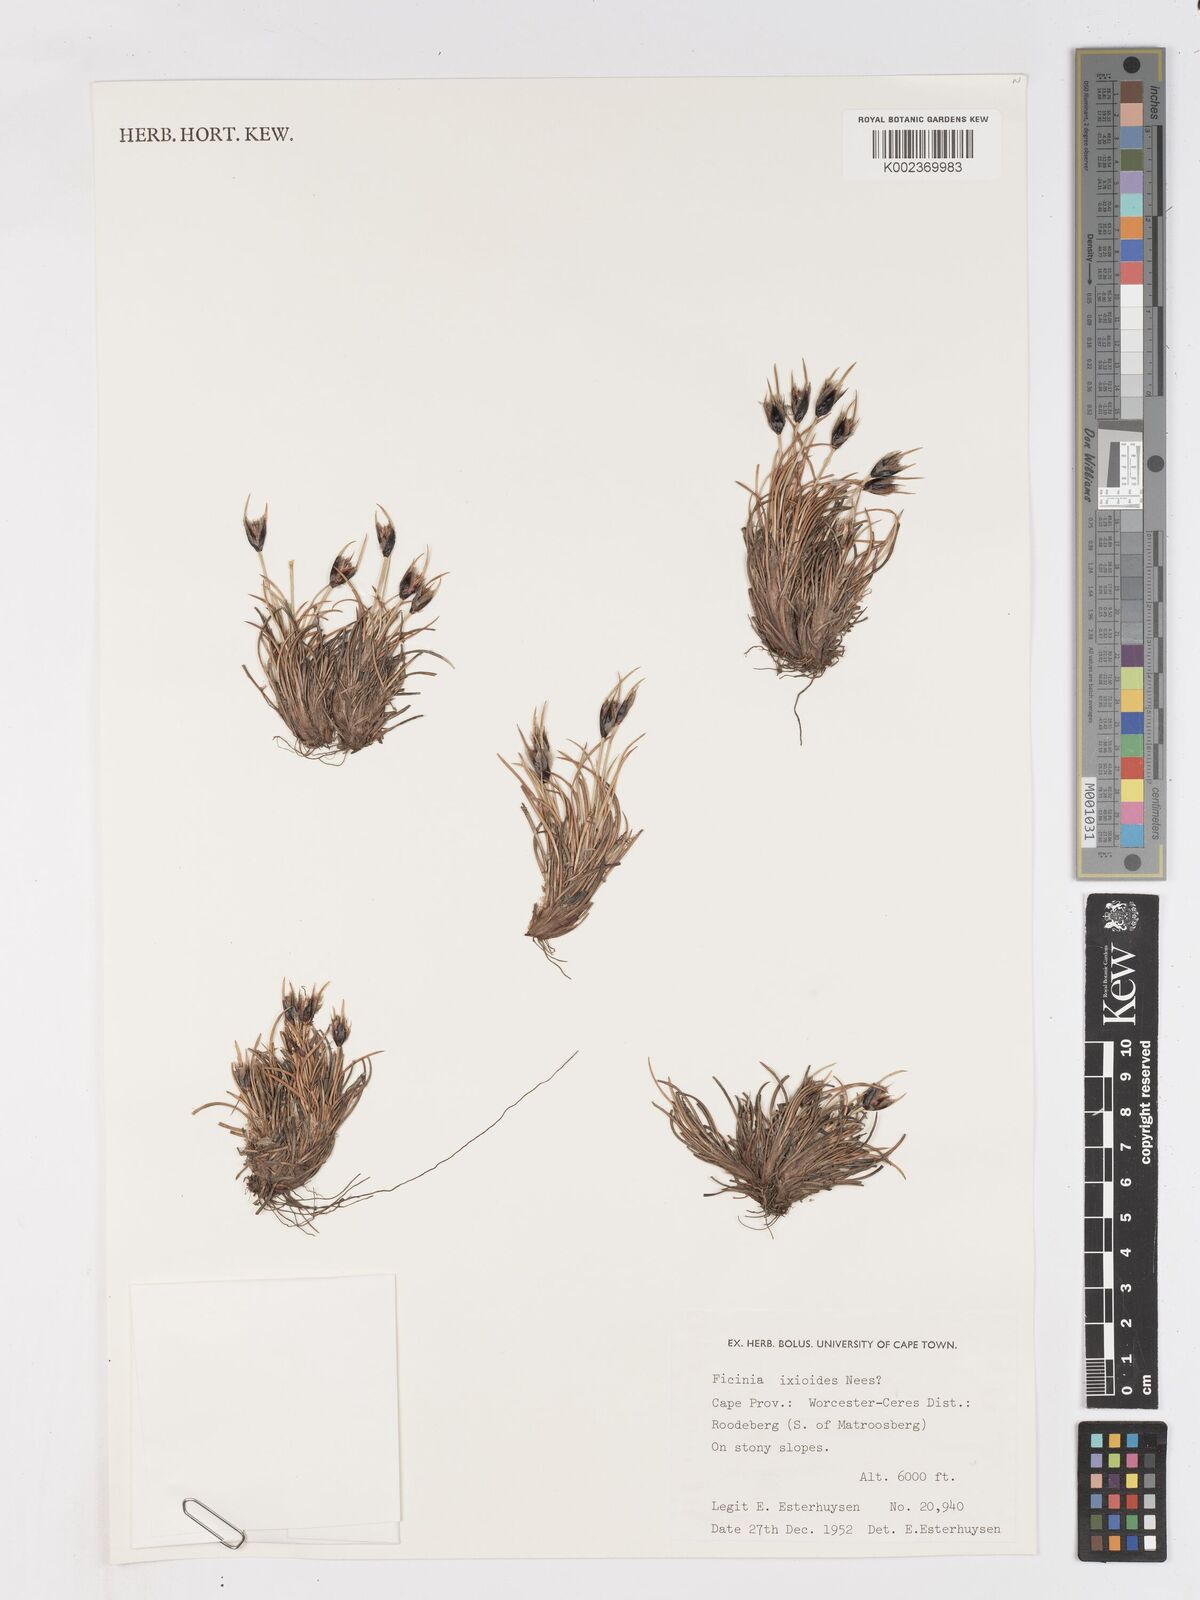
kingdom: Plantae
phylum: Tracheophyta
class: Liliopsida
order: Poales
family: Cyperaceae
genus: Ficinia
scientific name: Ficinia ixioides
